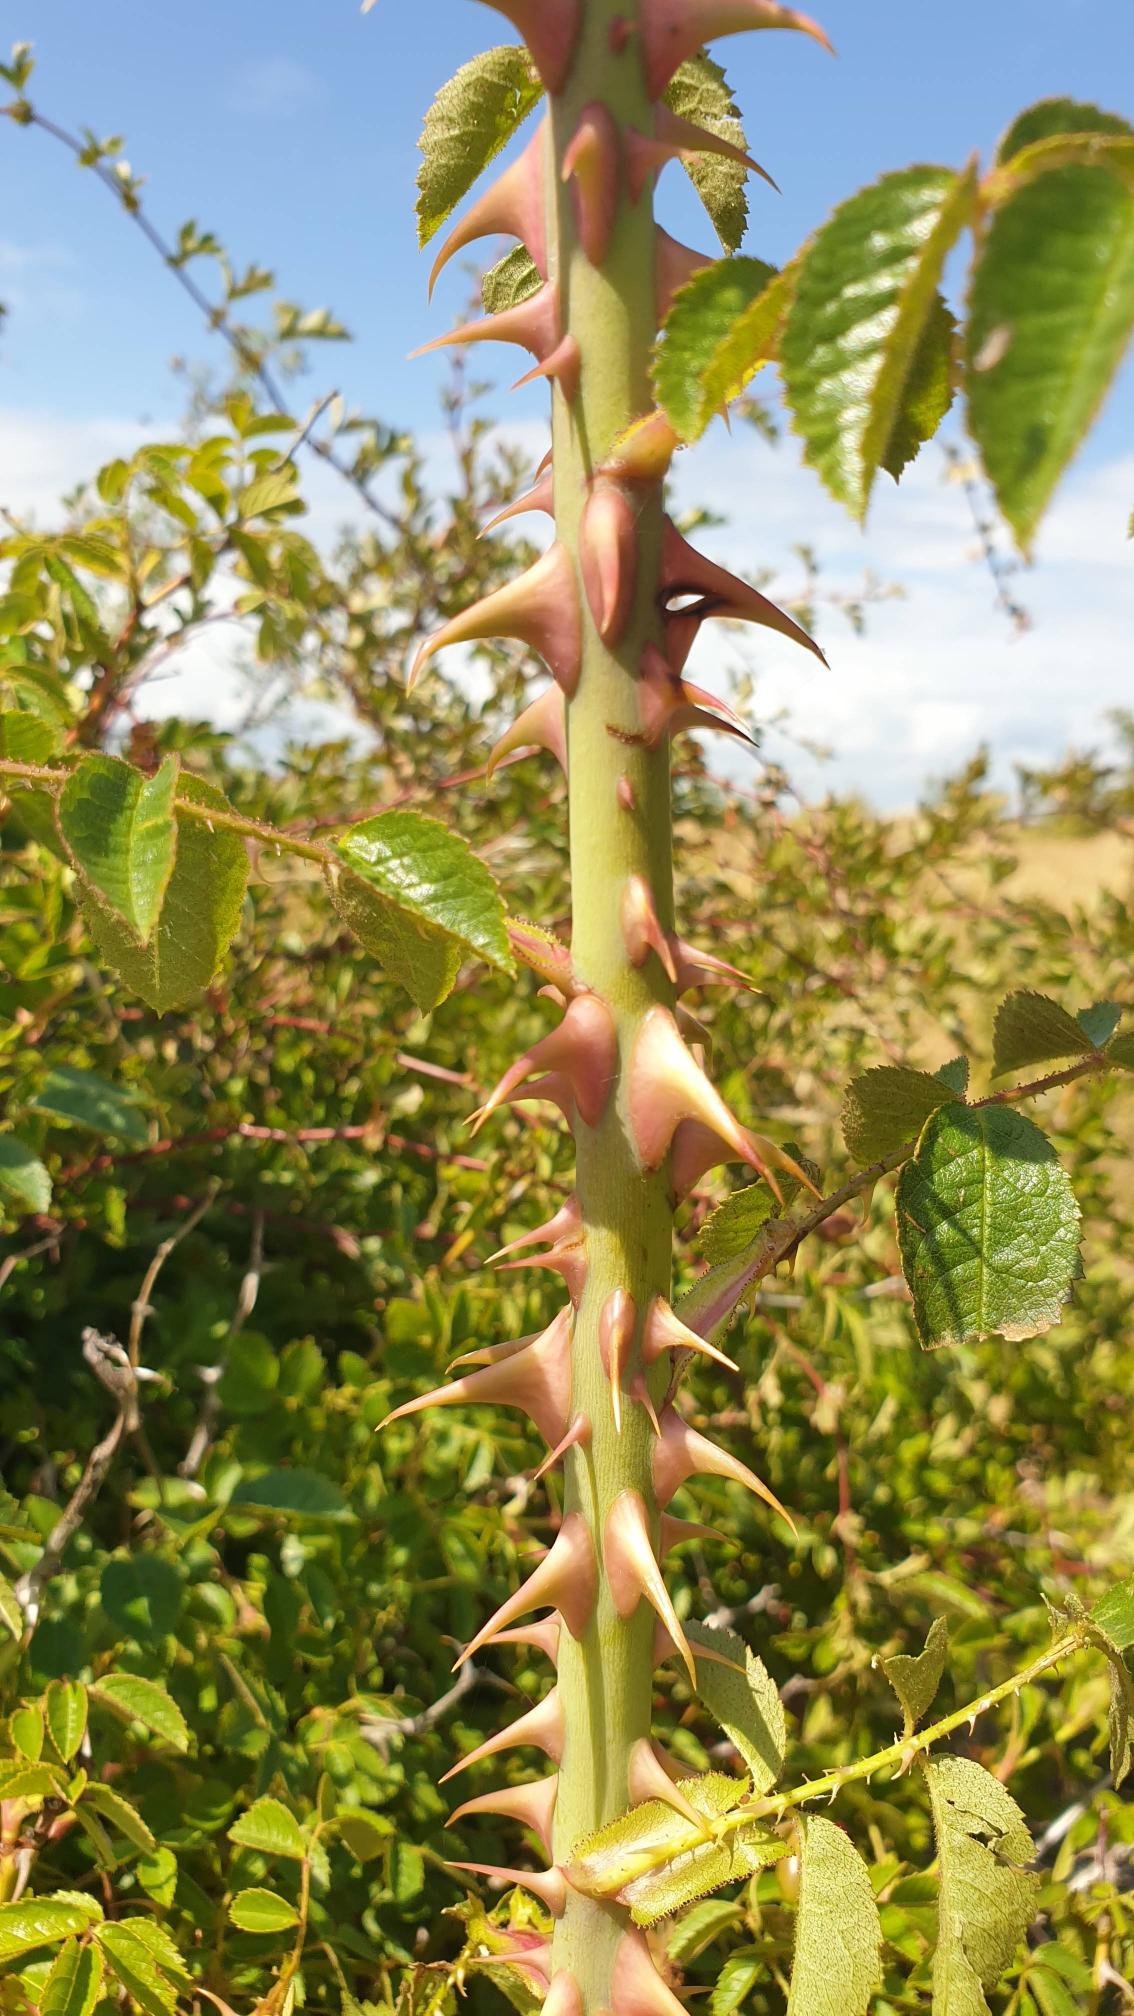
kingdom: Plantae
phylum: Tracheophyta
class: Magnoliopsida
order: Rosales
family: Rosaceae
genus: Rosa
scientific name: Rosa inodora
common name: Lugtløs æble-rose
